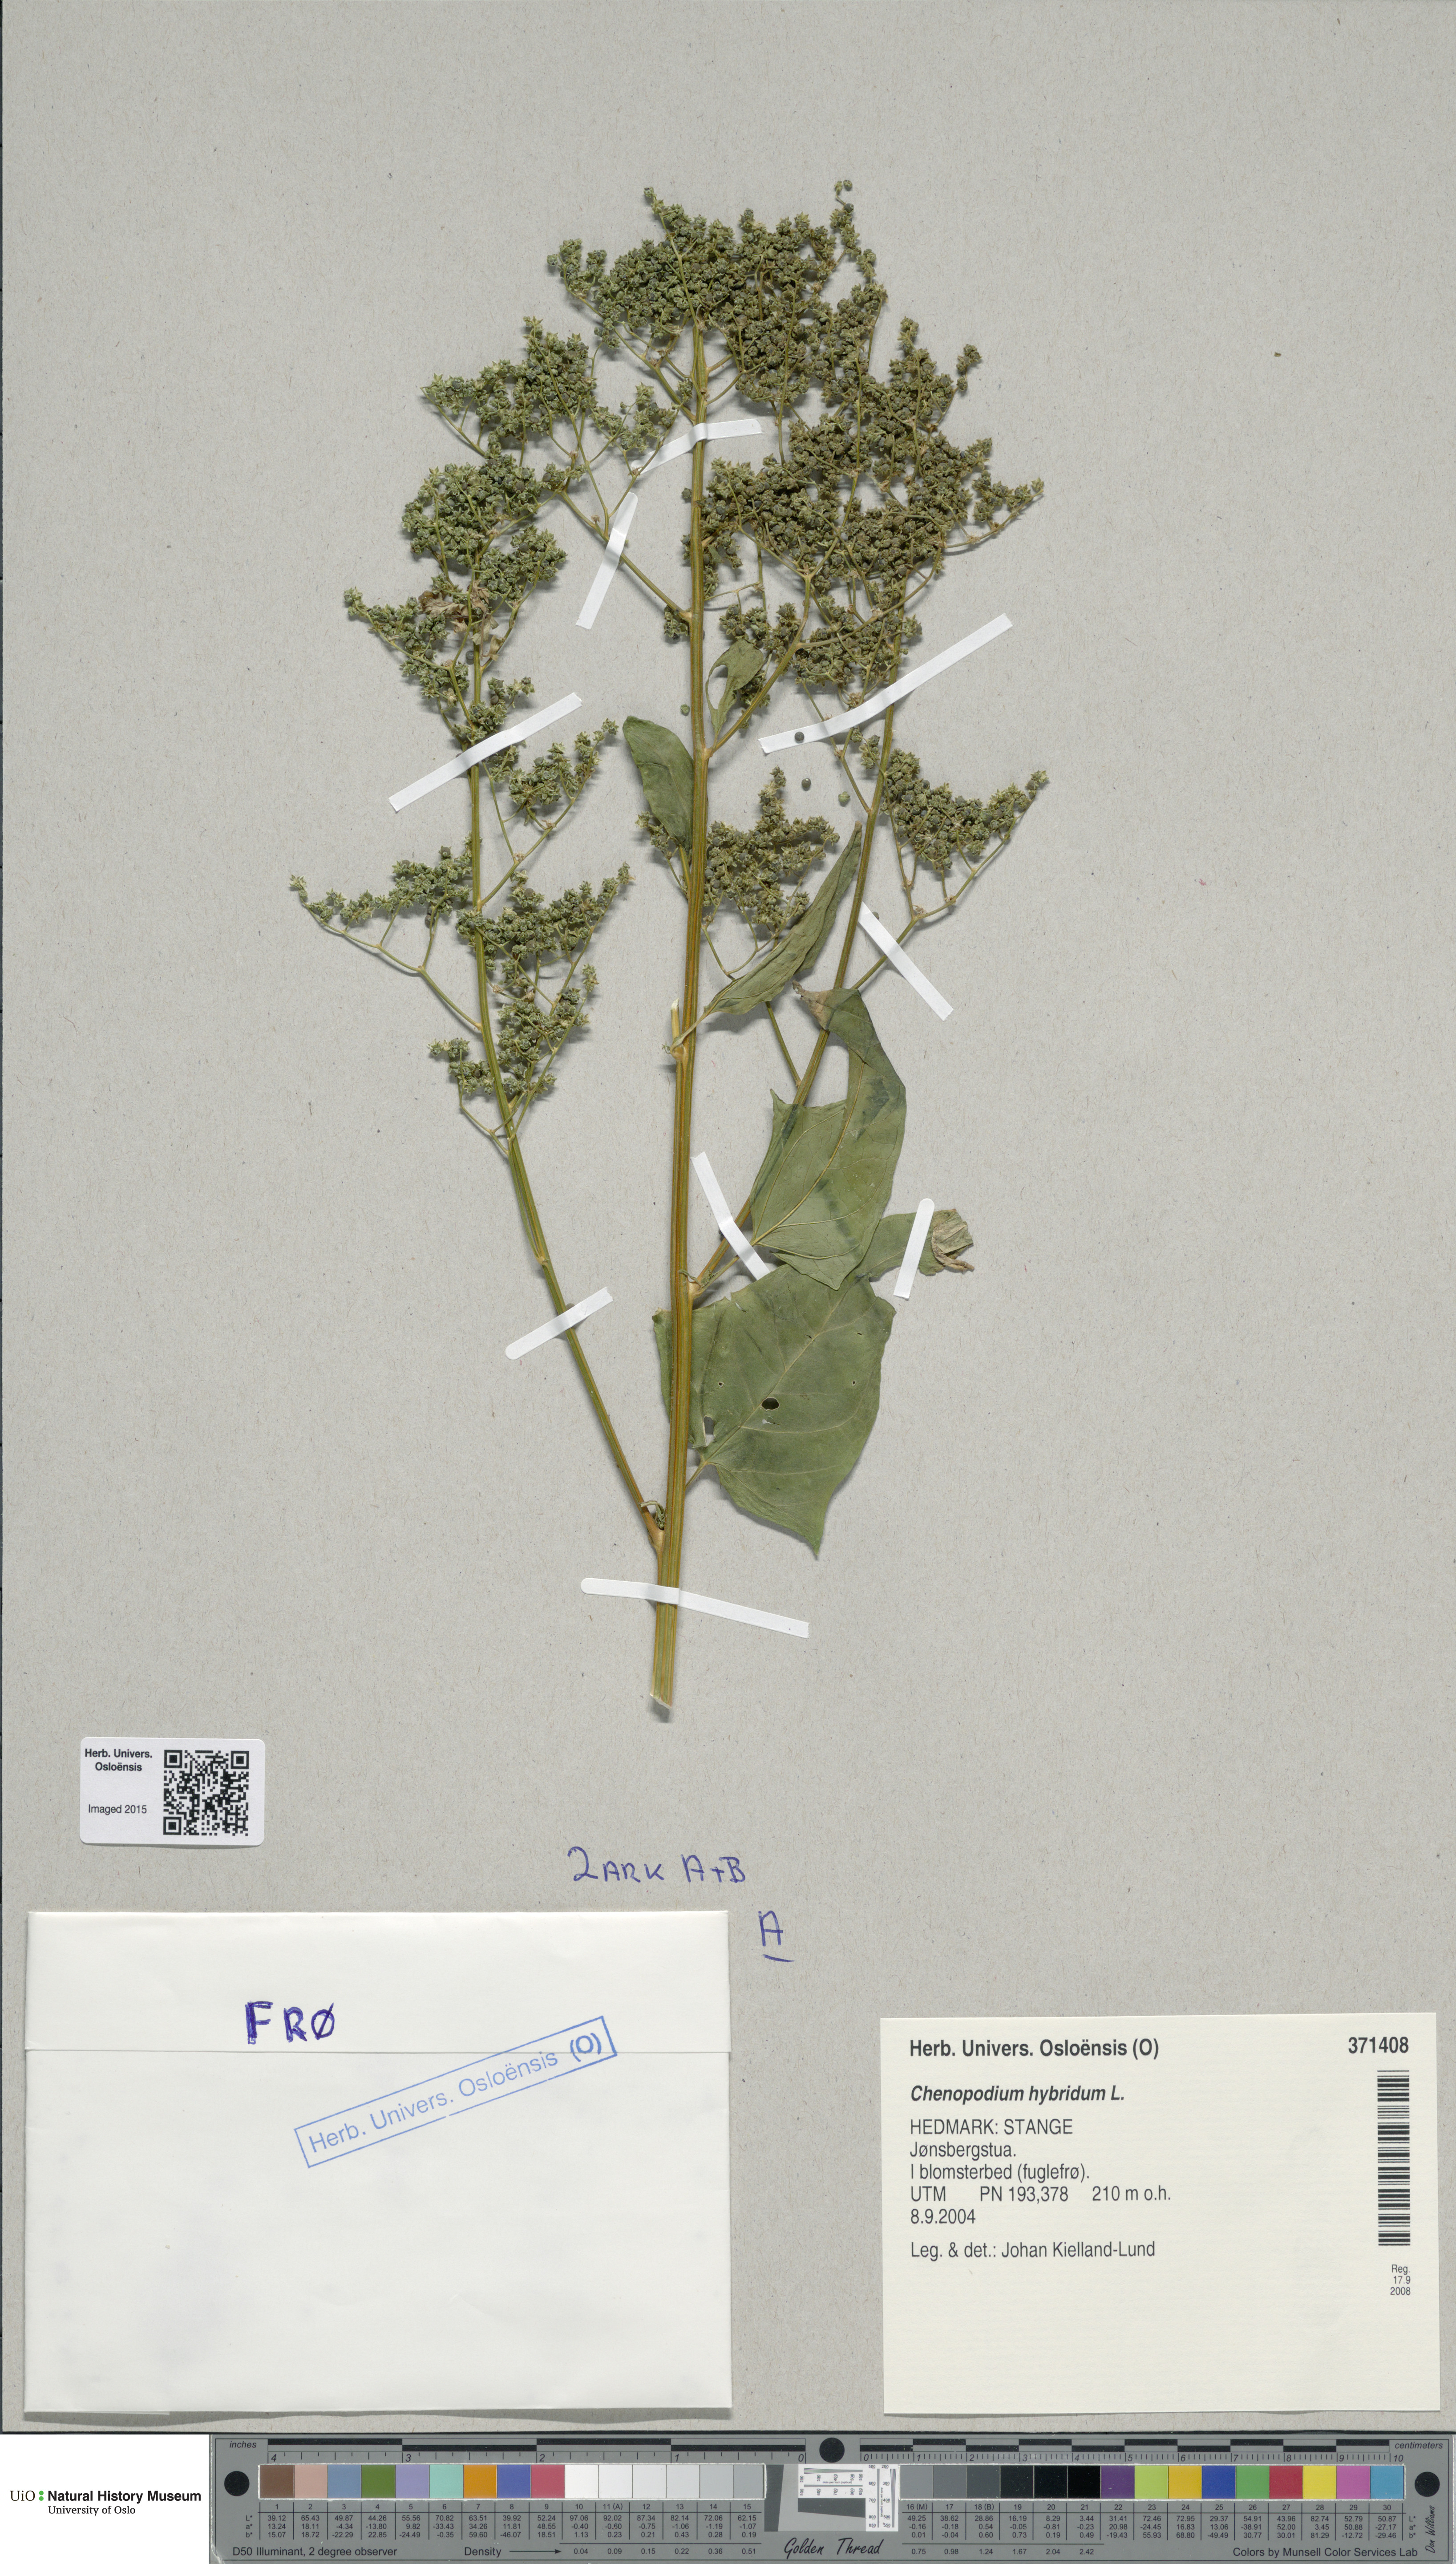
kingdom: Plantae
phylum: Tracheophyta
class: Magnoliopsida
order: Caryophyllales
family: Amaranthaceae
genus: Chenopodiastrum
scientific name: Chenopodiastrum hybridum
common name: Mapleleaf goosefoot
